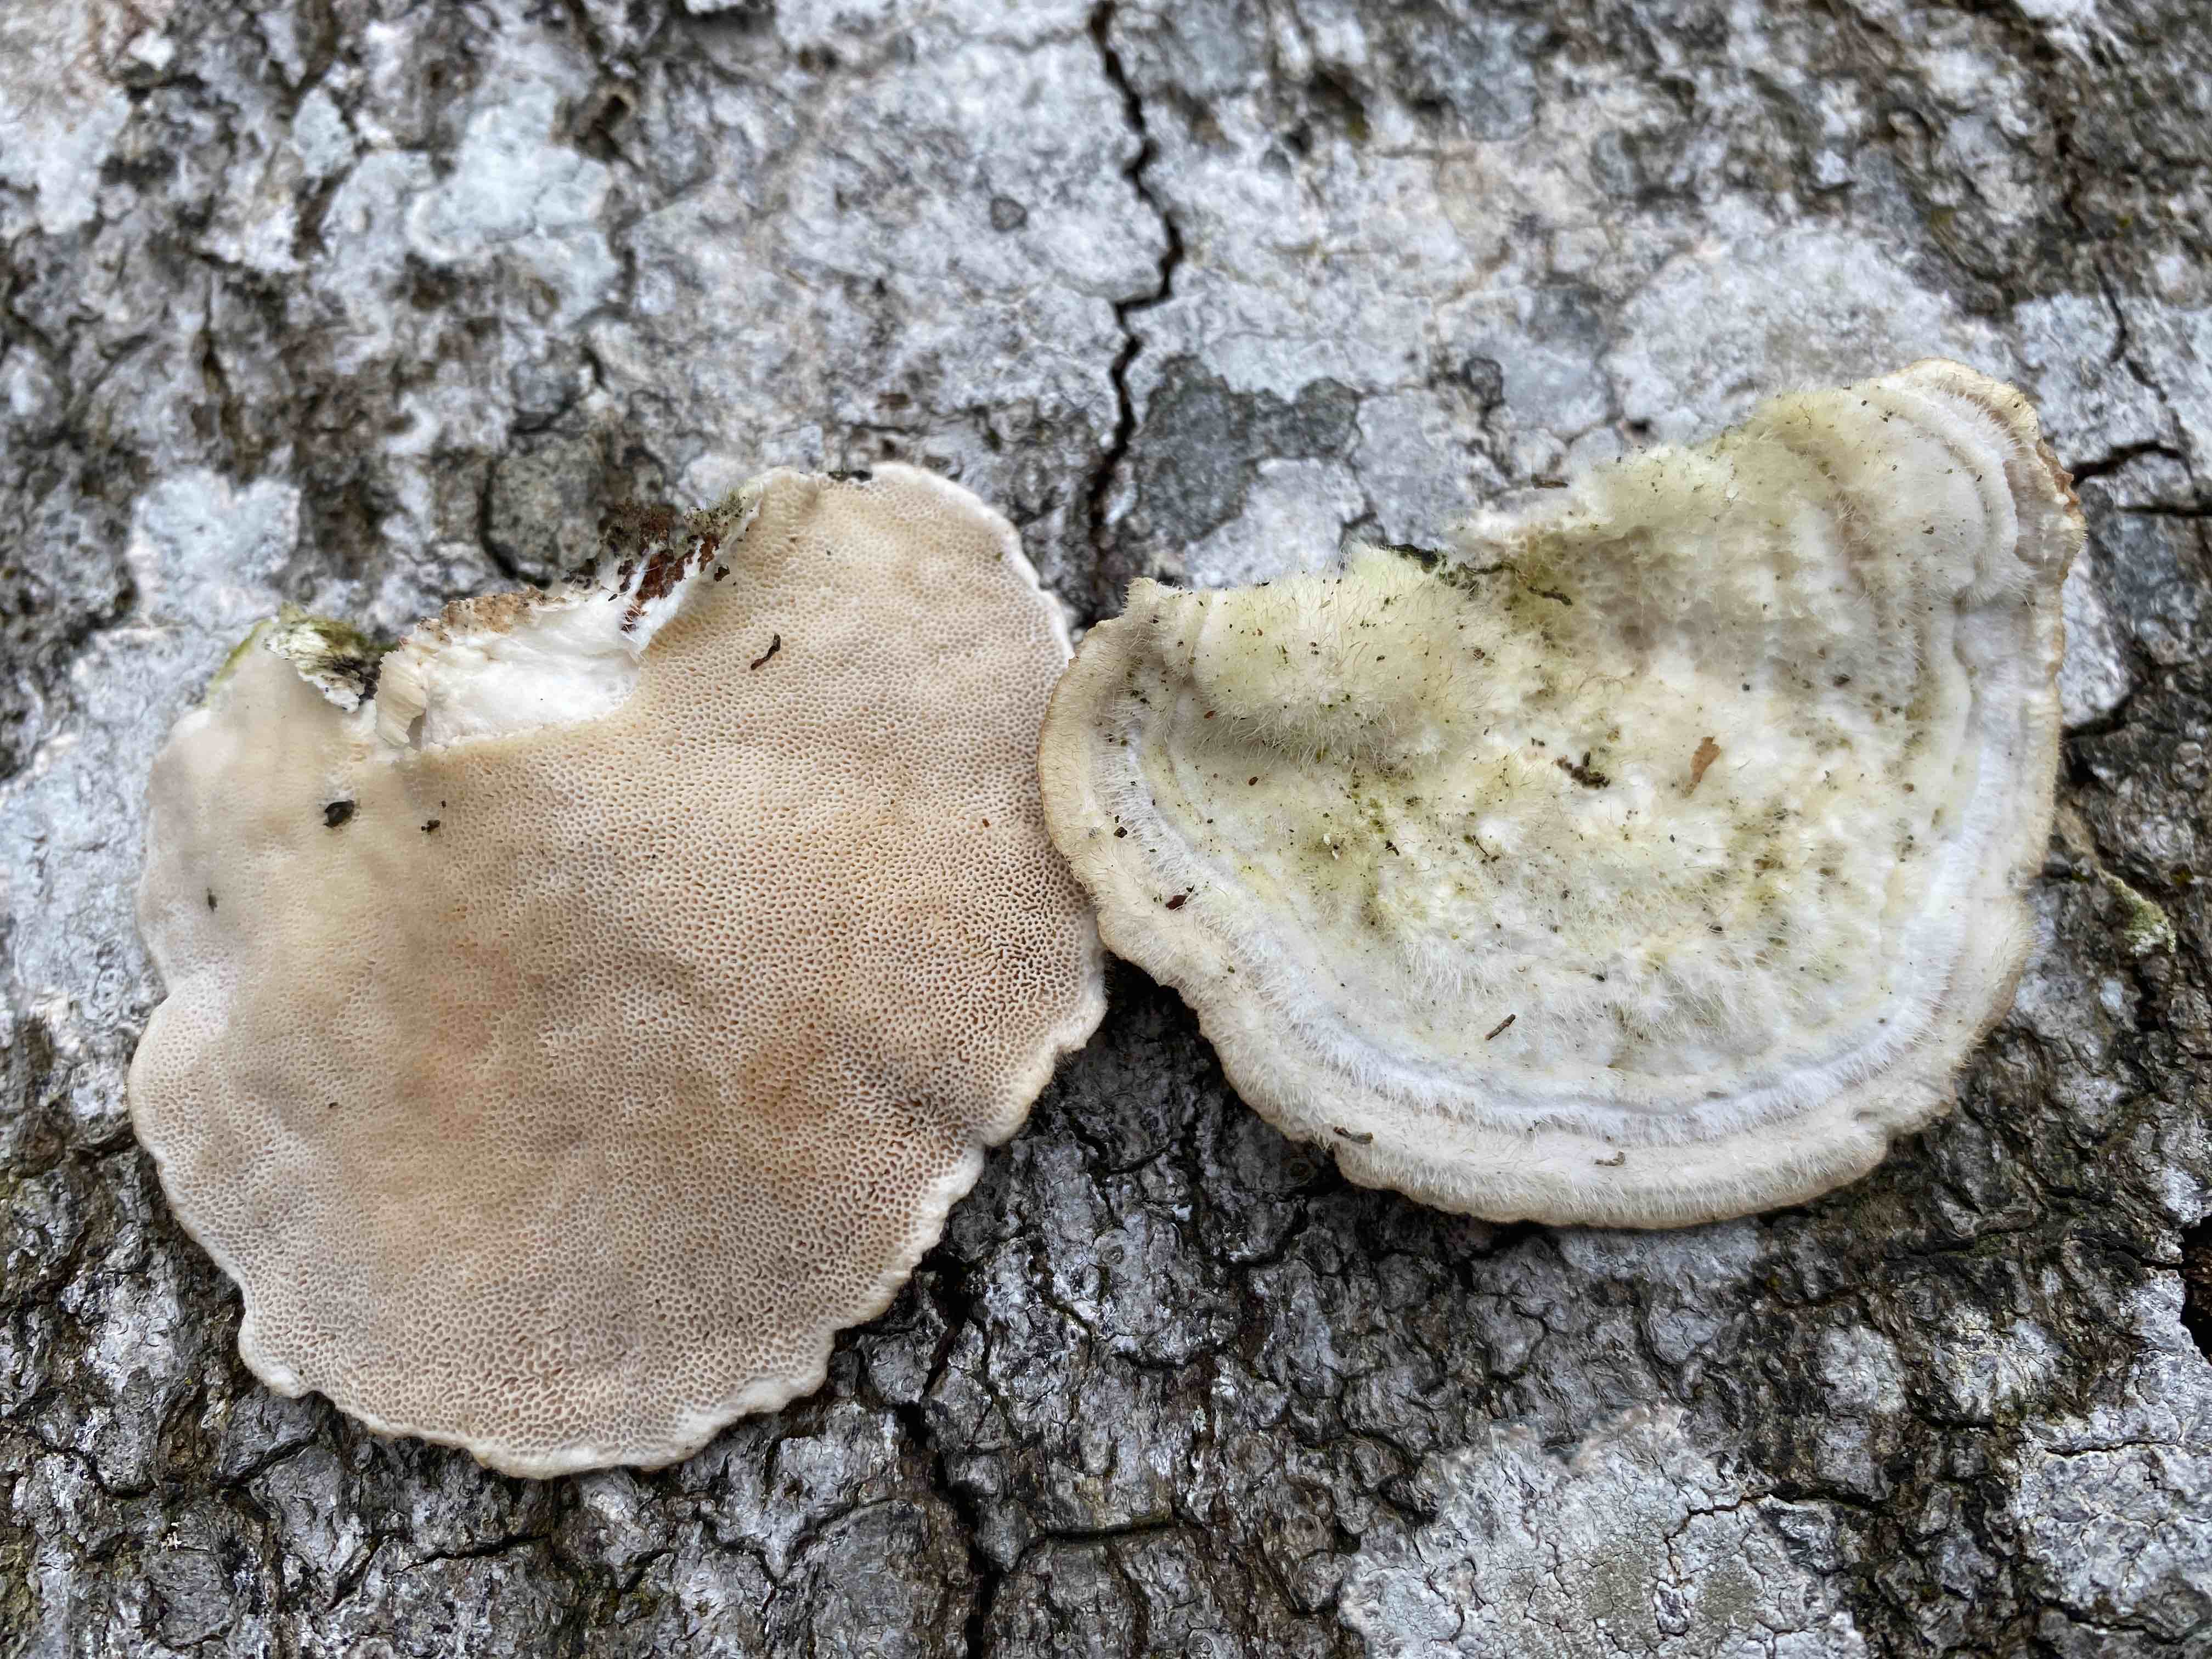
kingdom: Fungi
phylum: Basidiomycota
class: Agaricomycetes
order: Polyporales
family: Polyporaceae
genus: Trametes
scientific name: Trametes hirsuta
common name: håret læderporesvamp
